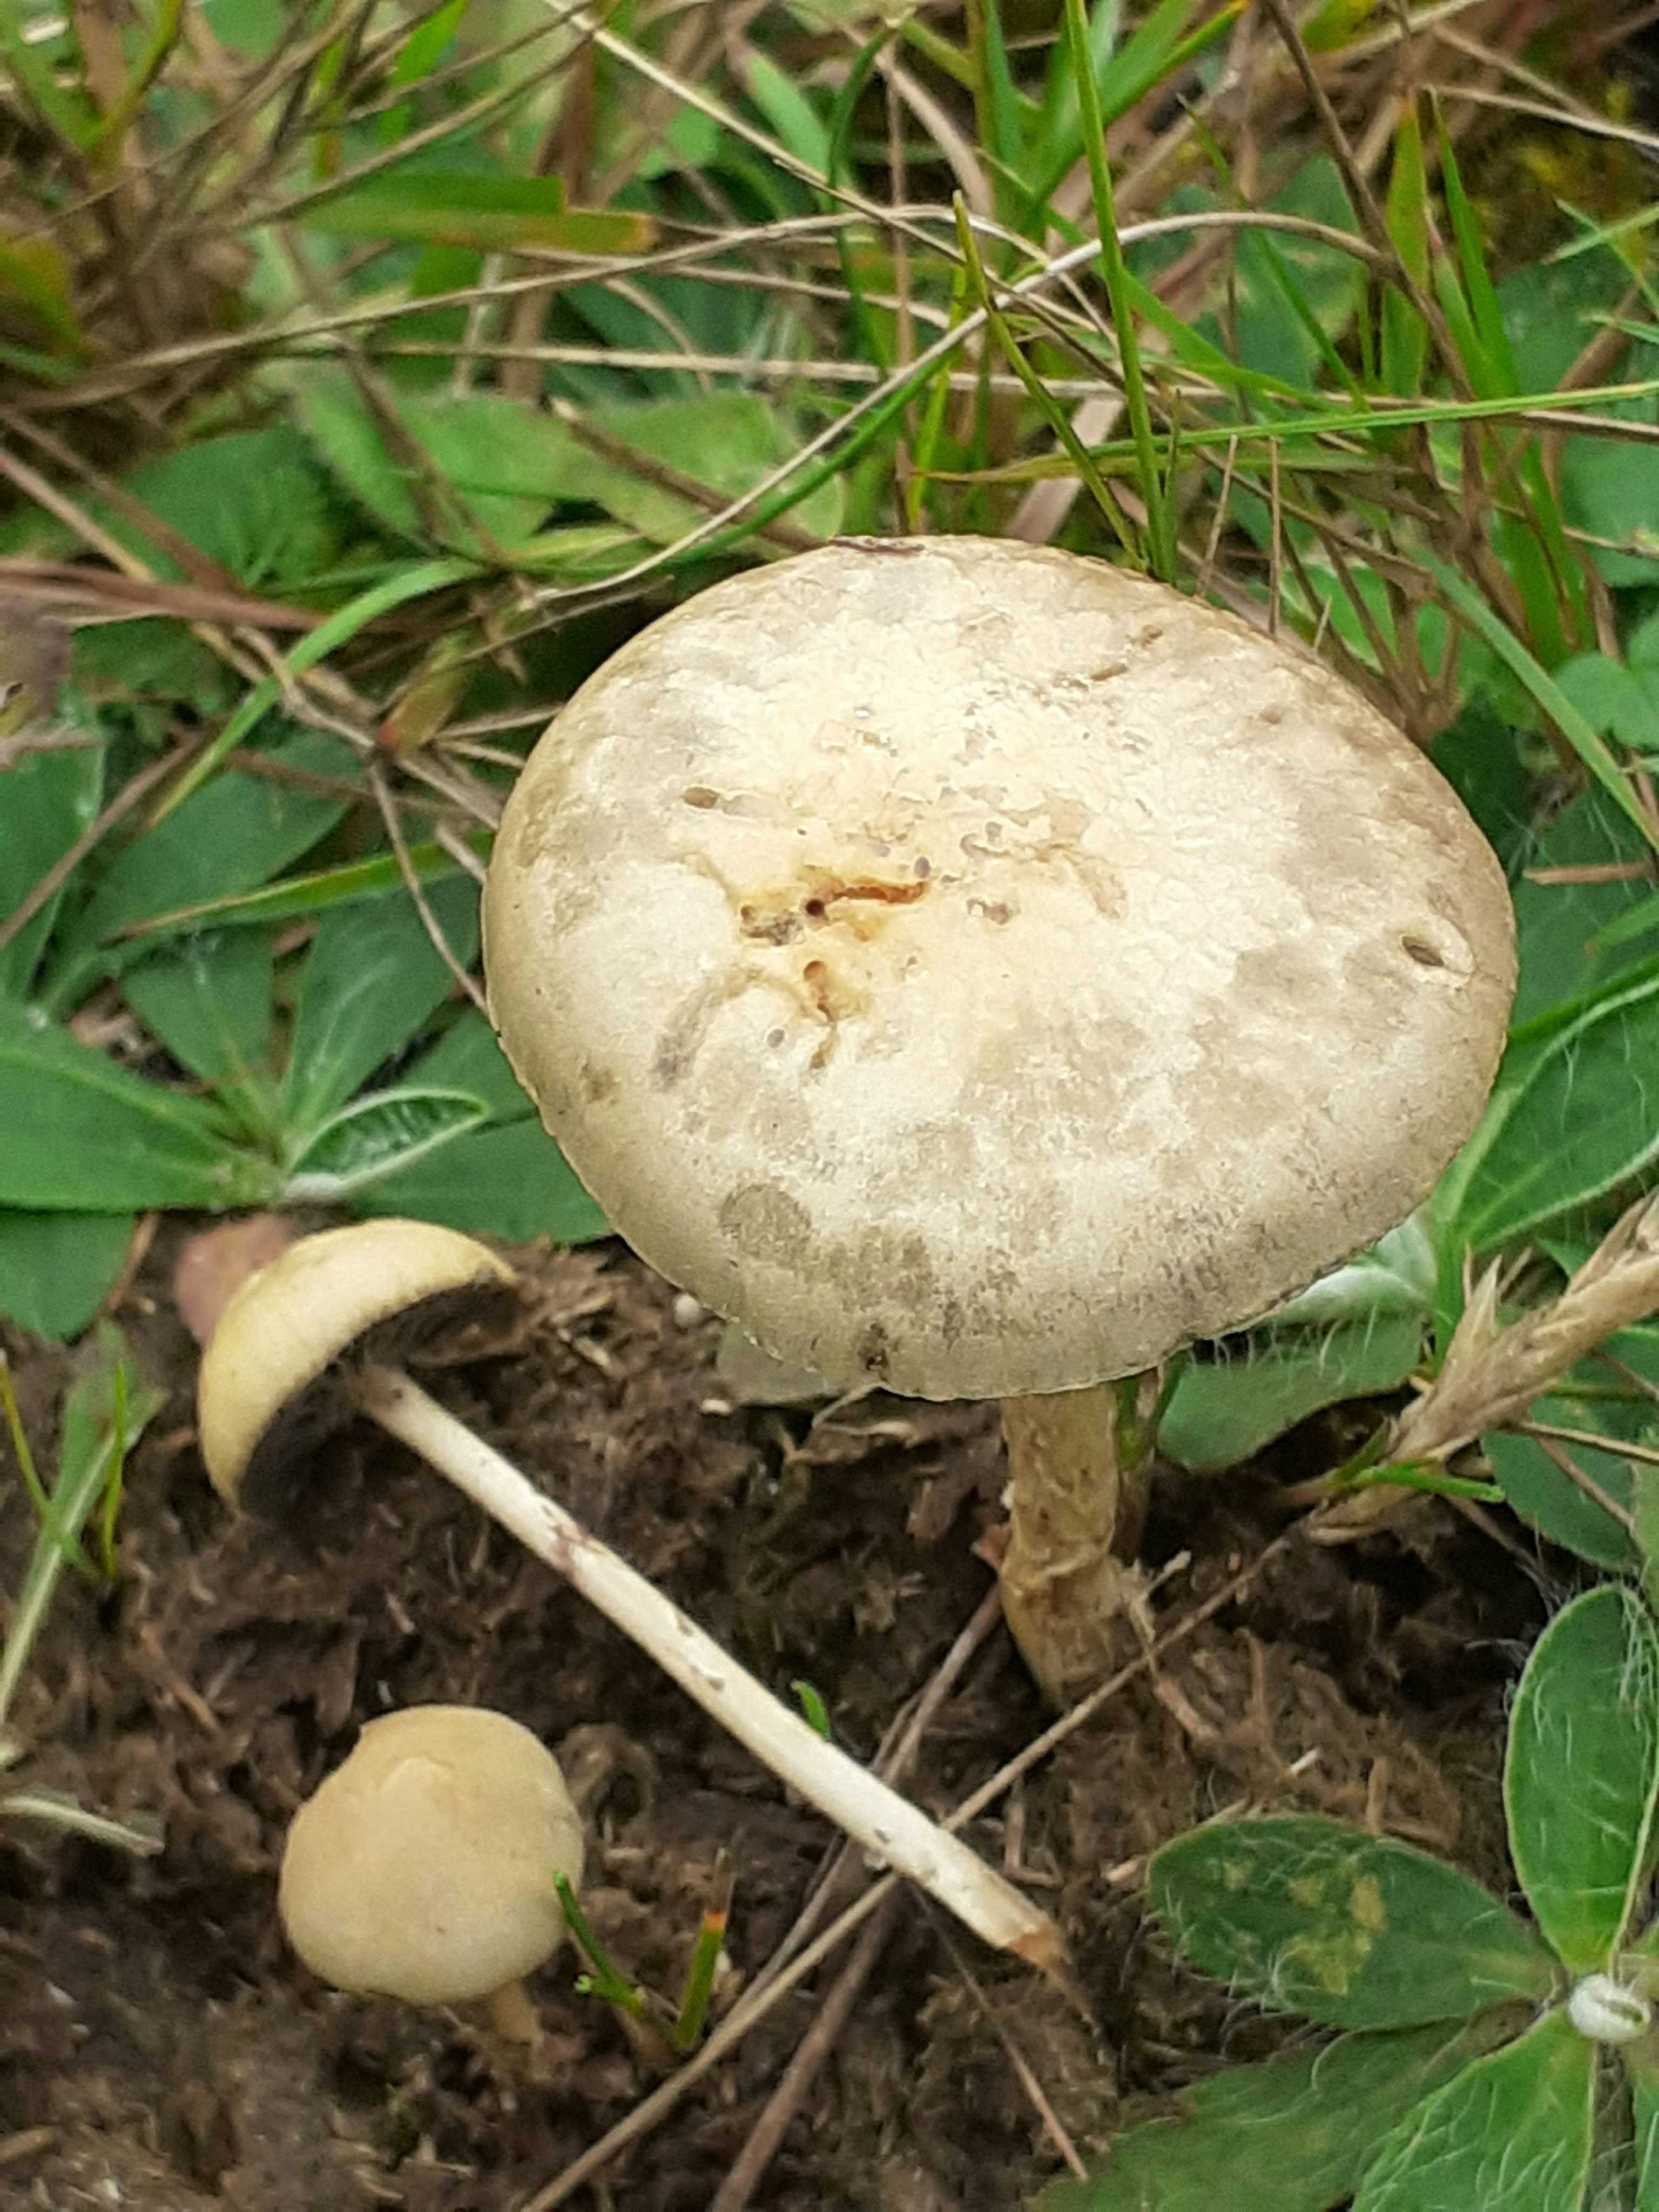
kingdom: Fungi
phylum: Basidiomycota
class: Agaricomycetes
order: Agaricales
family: Strophariaceae
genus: Protostropharia
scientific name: Protostropharia semiglobata
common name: halvkugleformet bredblad
